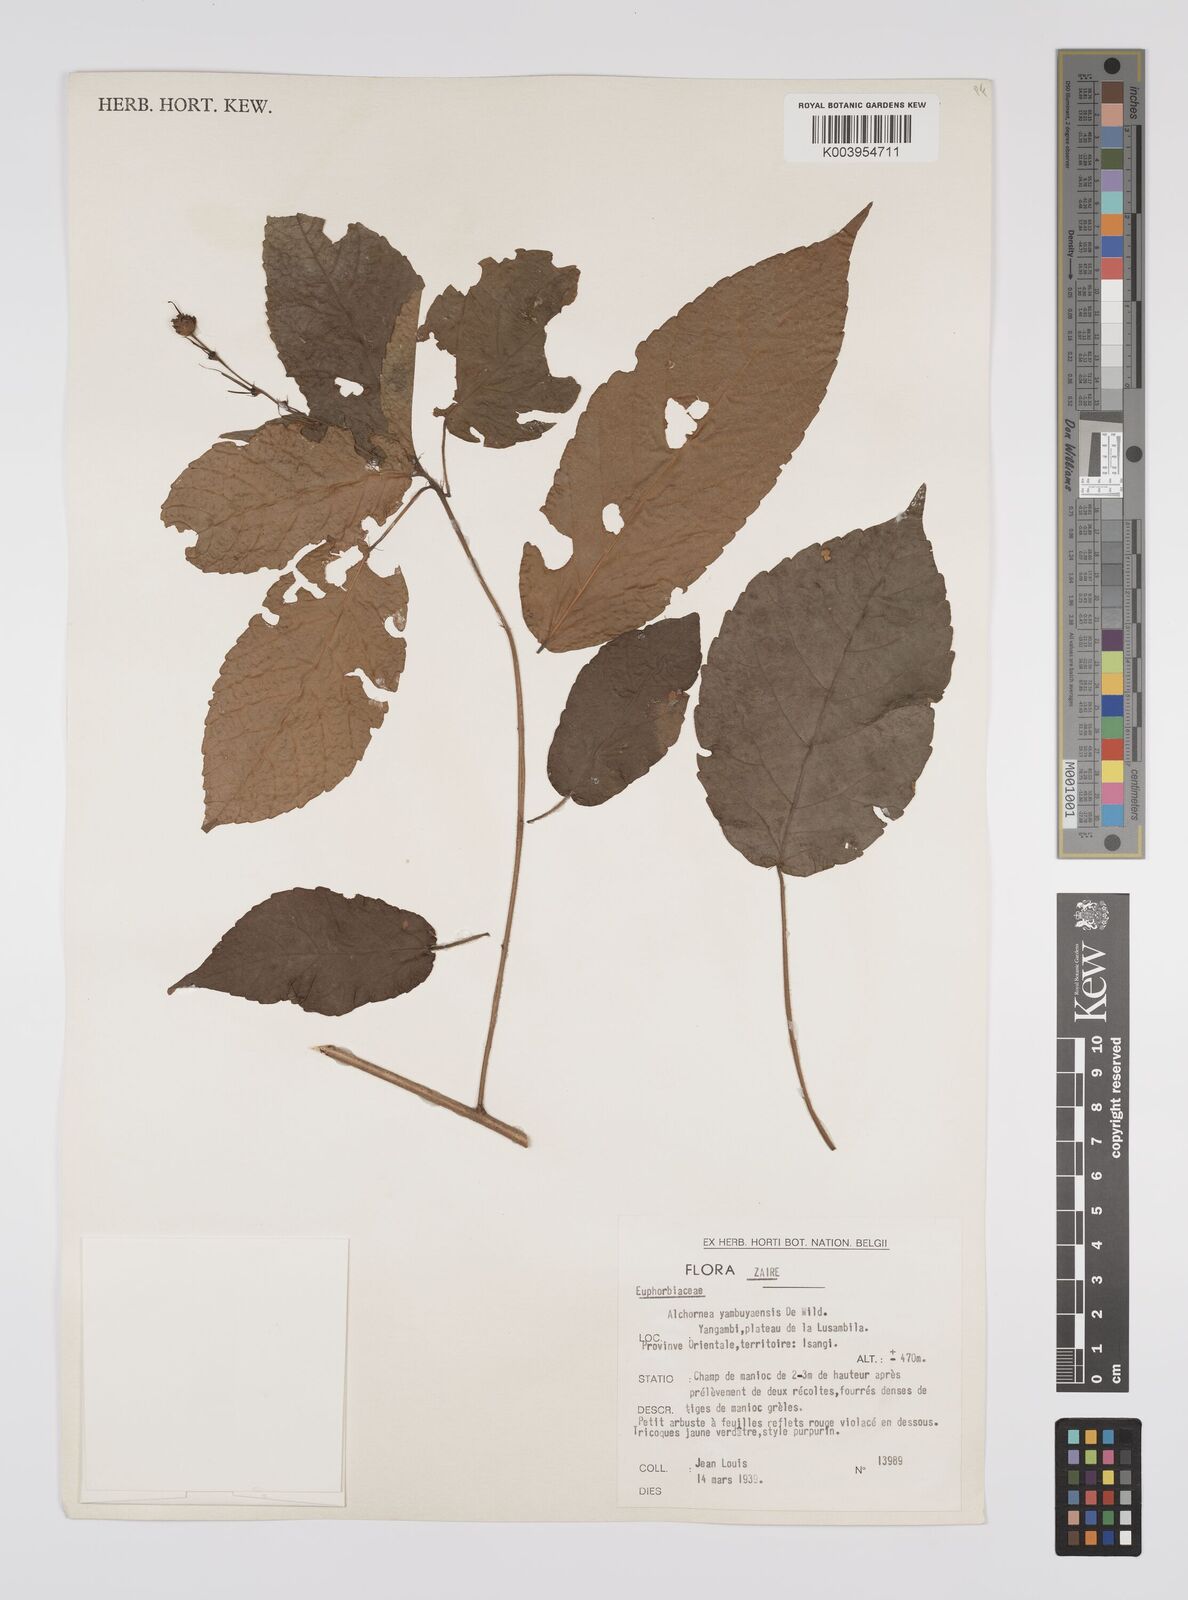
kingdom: Plantae
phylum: Tracheophyta
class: Magnoliopsida
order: Malpighiales
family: Euphorbiaceae
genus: Alchornea
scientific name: Alchornea yambuyaensis
